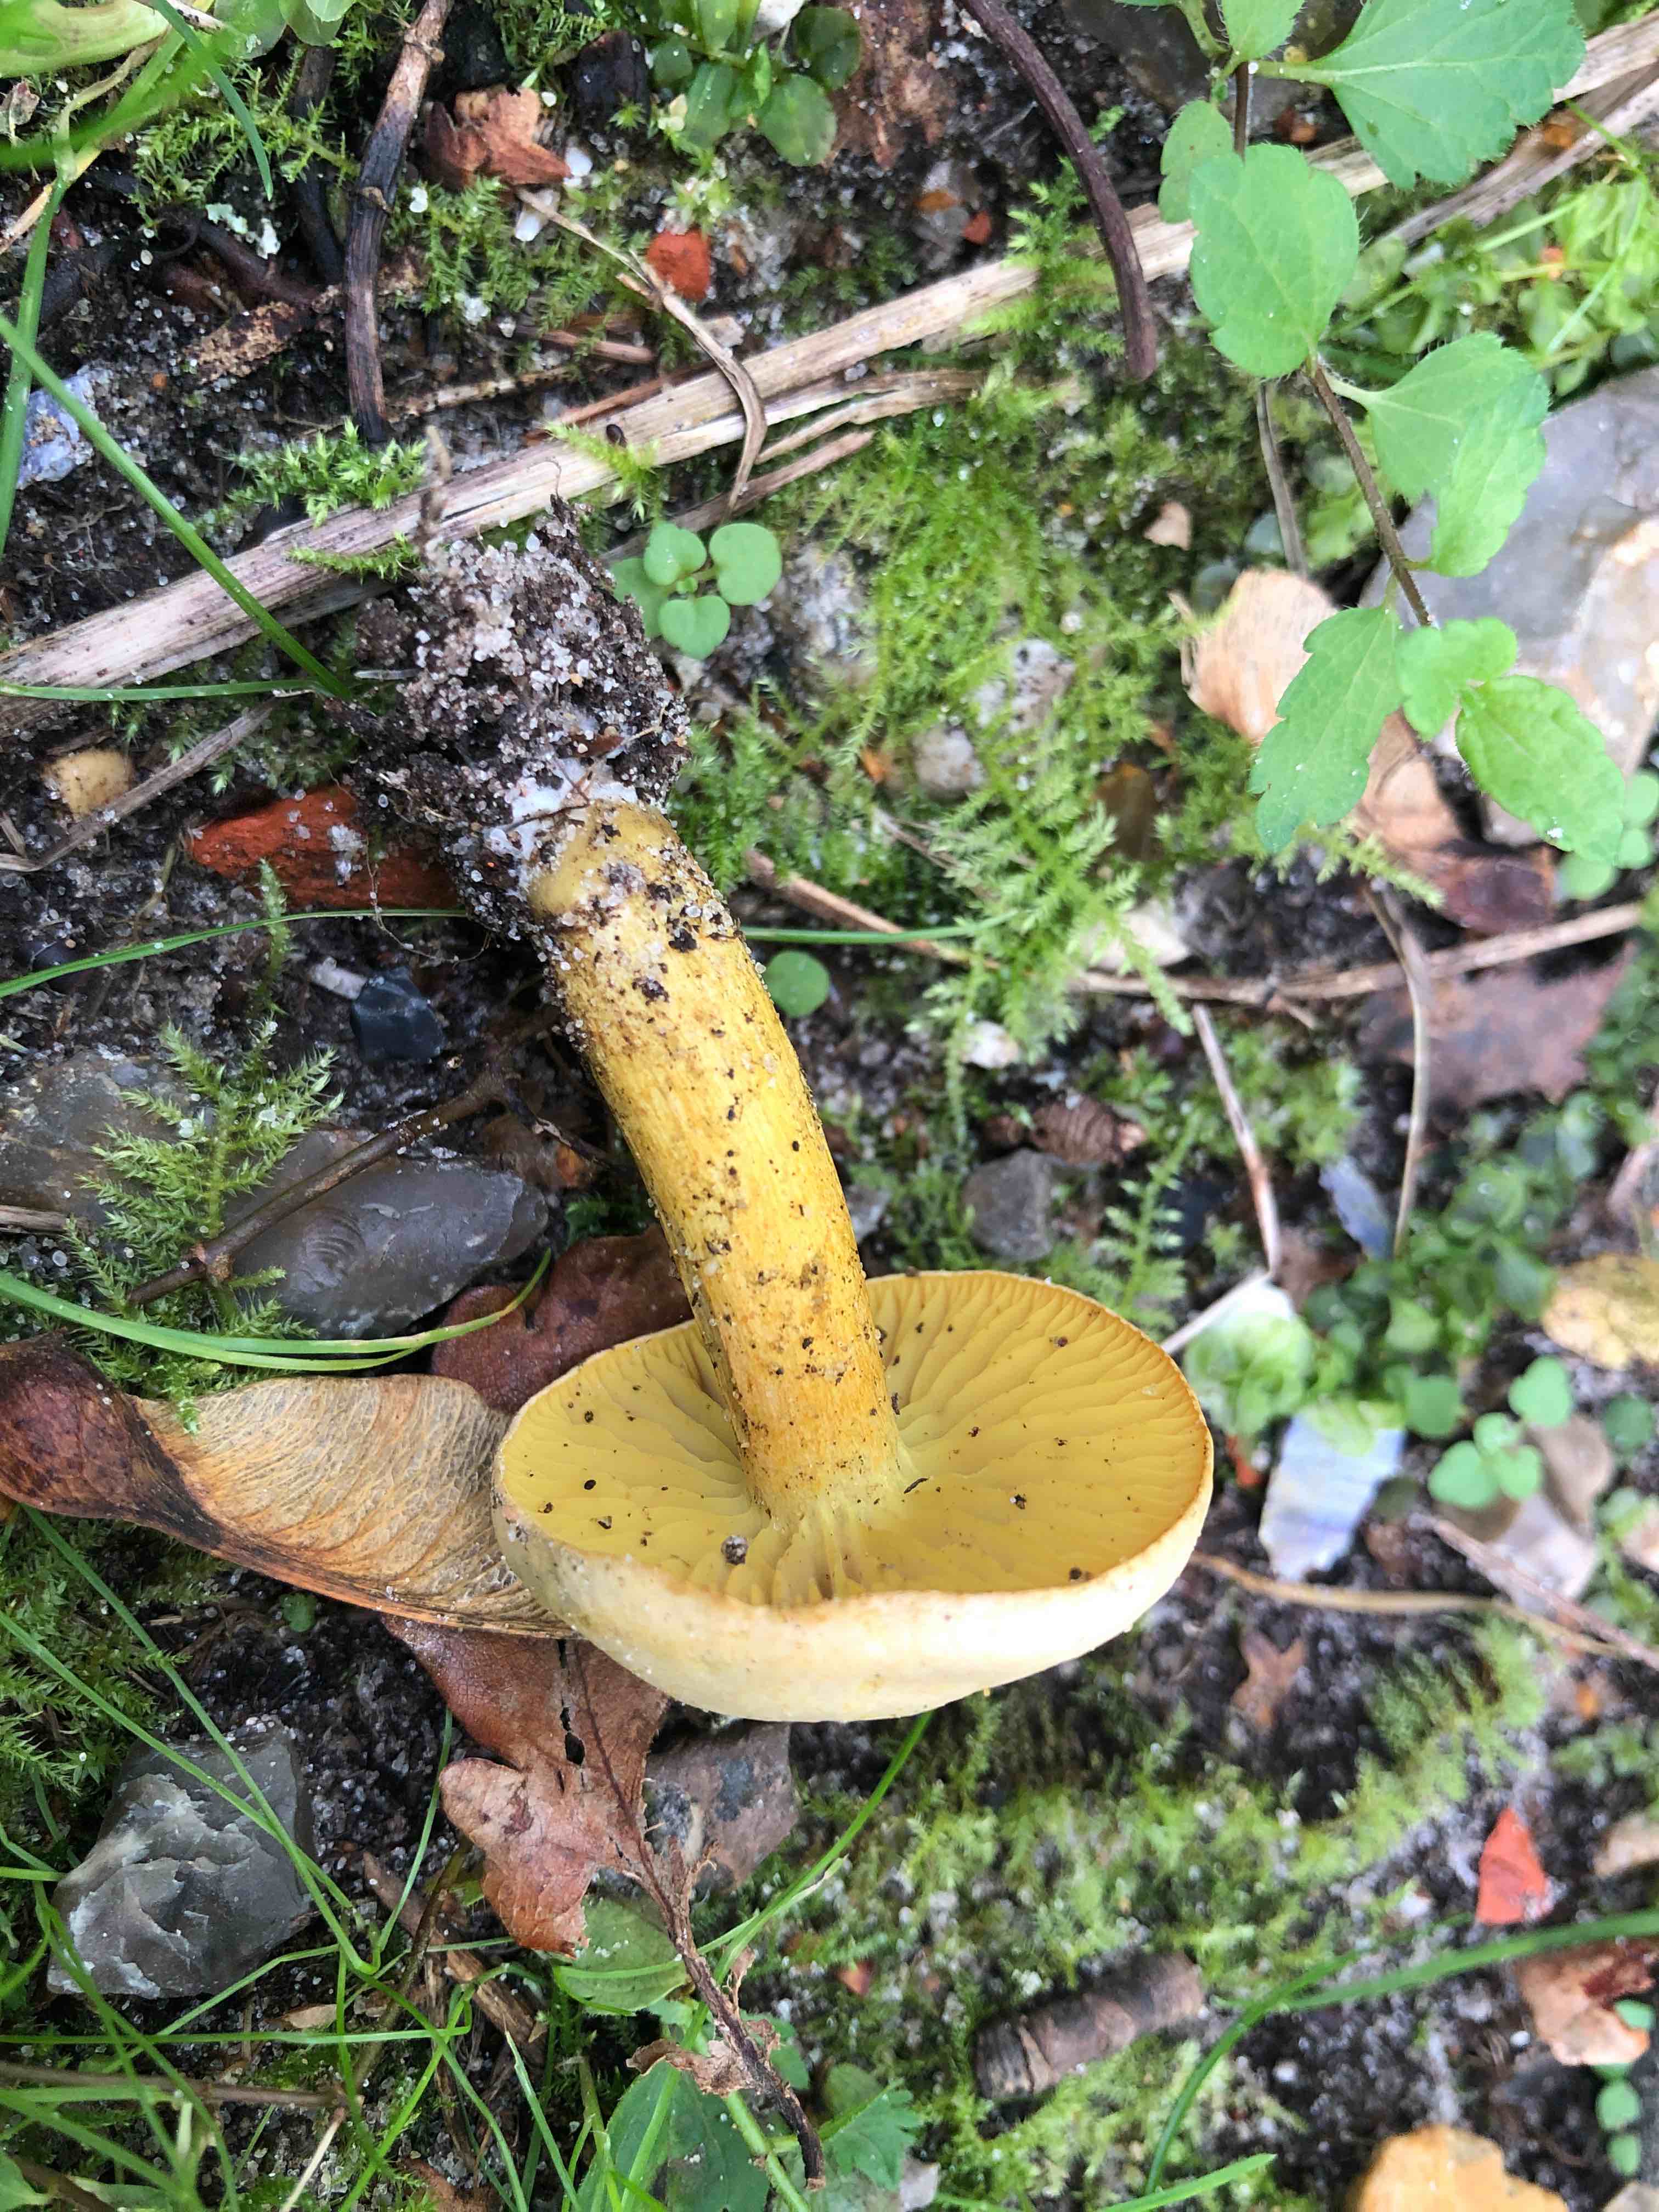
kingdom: Fungi
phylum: Basidiomycota
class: Agaricomycetes
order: Agaricales
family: Tricholomataceae
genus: Tricholoma
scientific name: Tricholoma sulphureum
